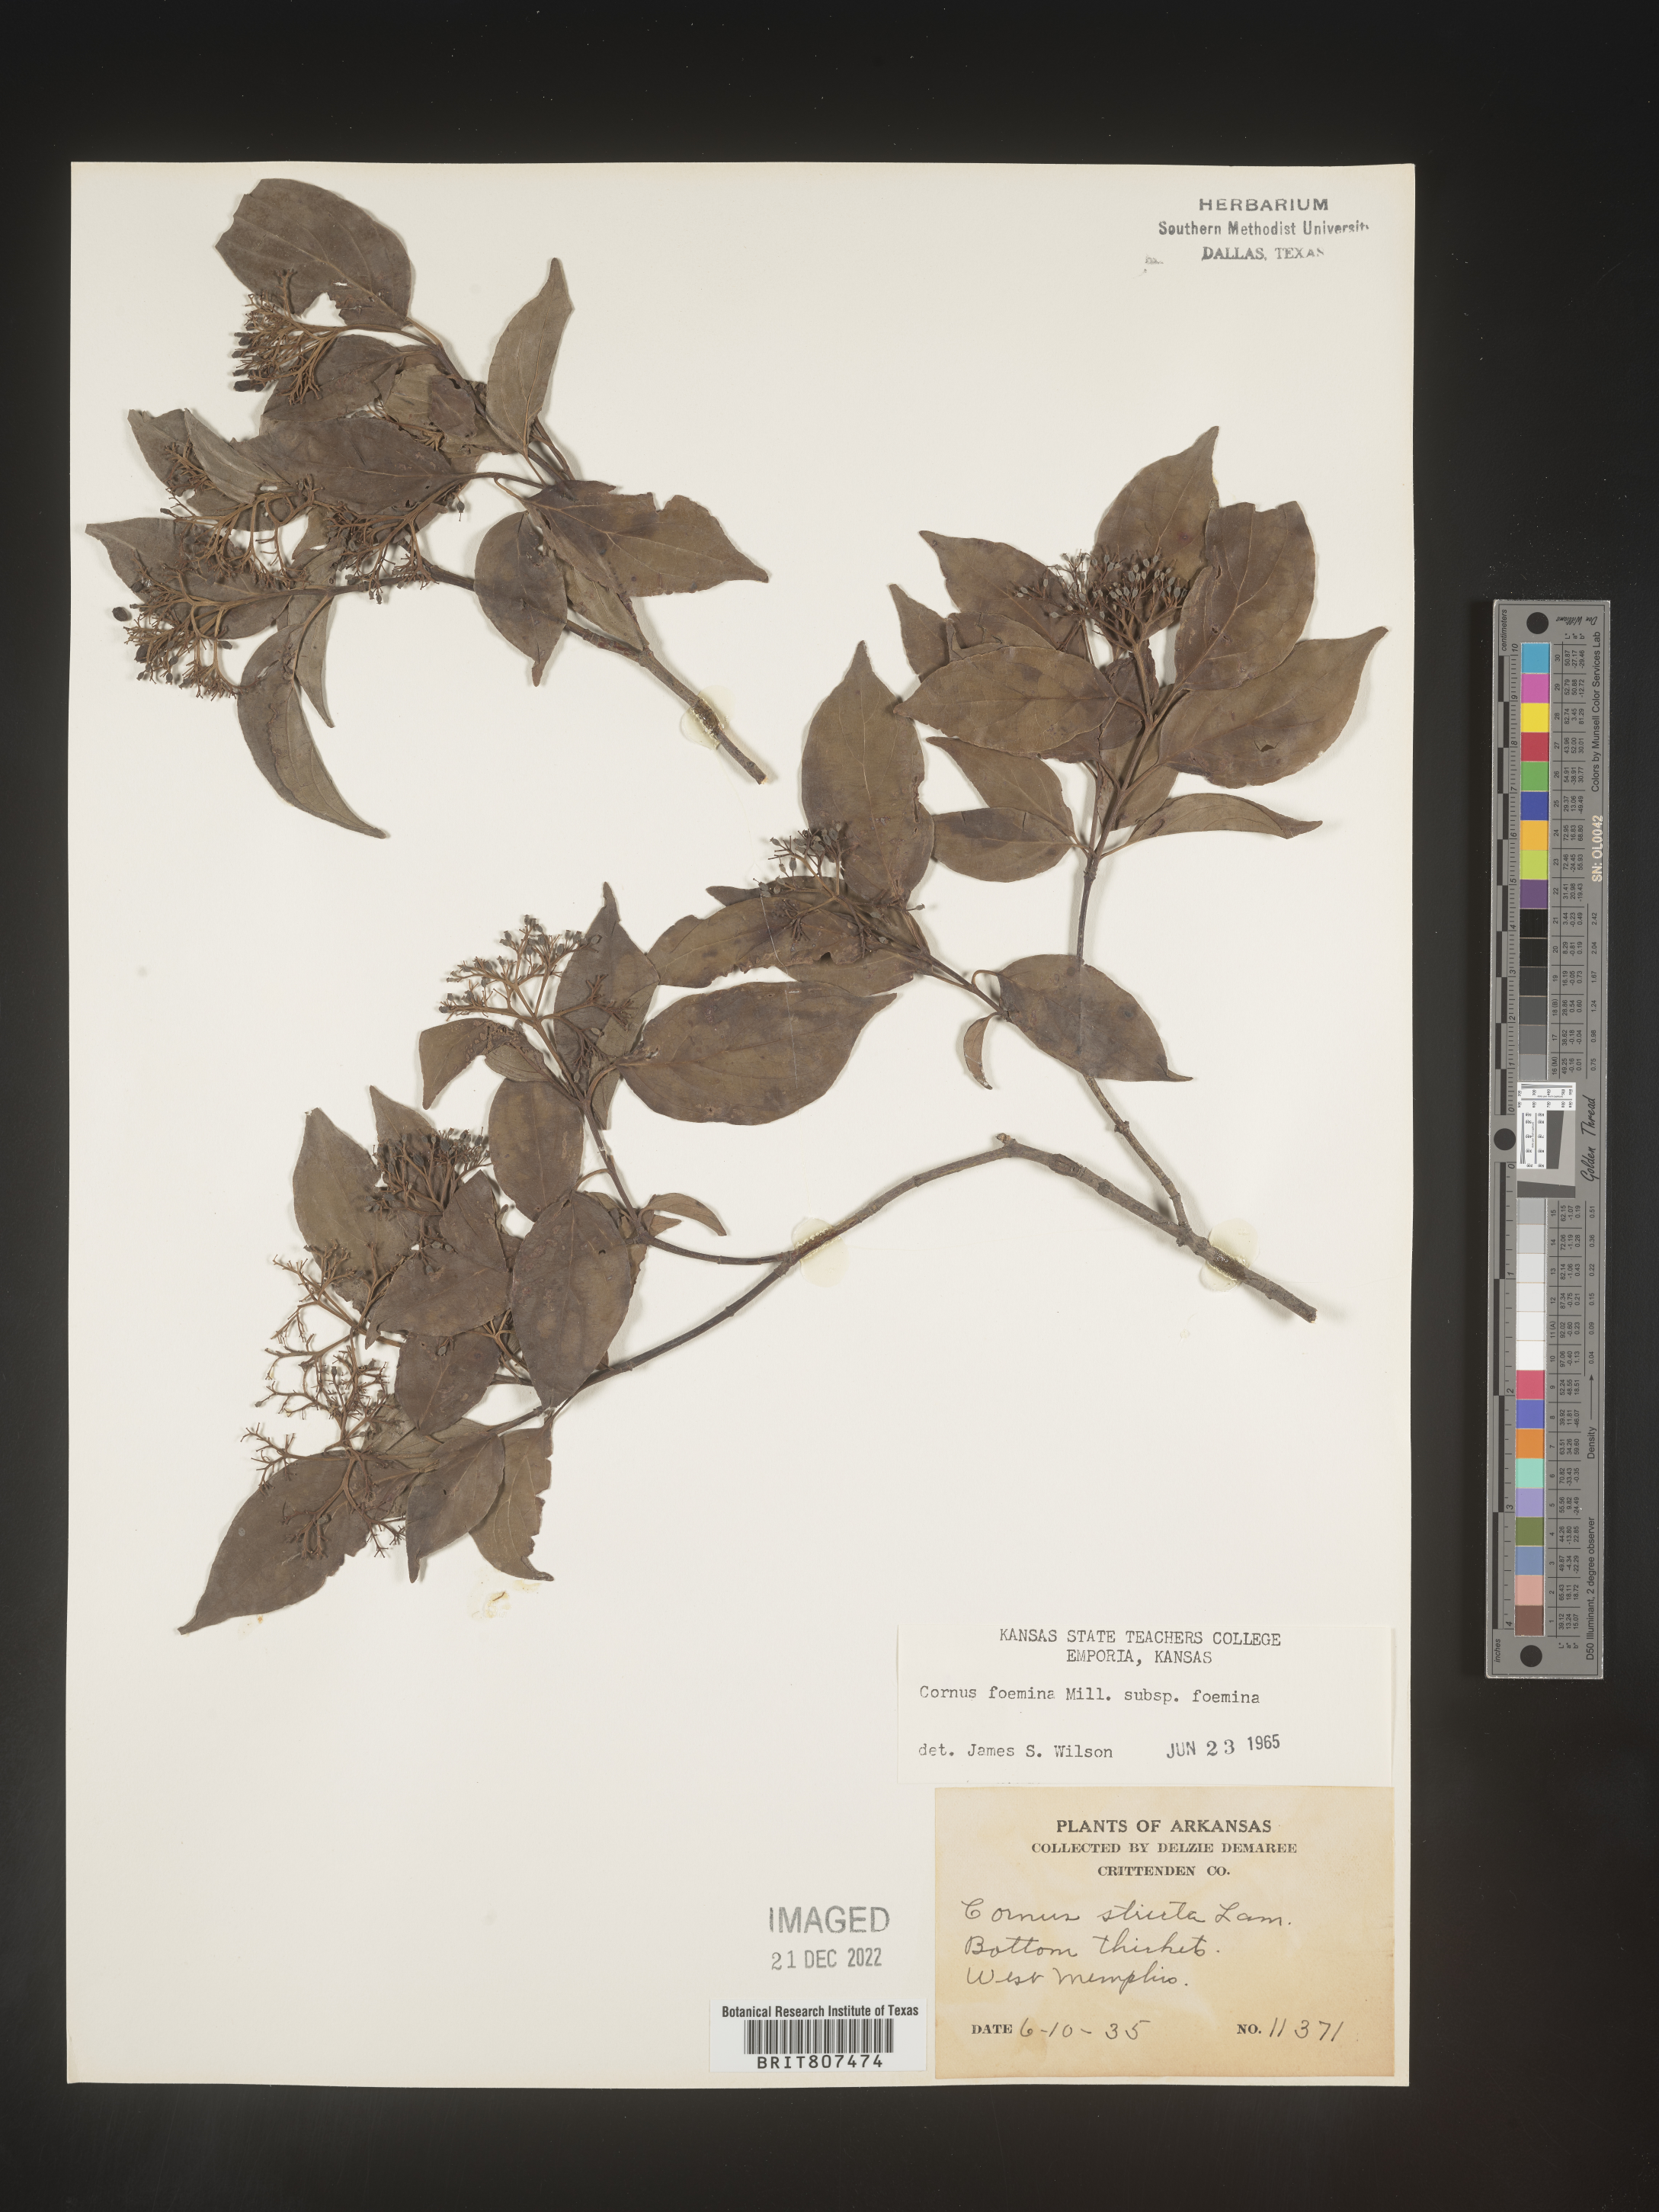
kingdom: Plantae
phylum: Tracheophyta
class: Magnoliopsida
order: Cornales
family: Cornaceae
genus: Cornus
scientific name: Cornus foemina
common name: Swamp dogwood
